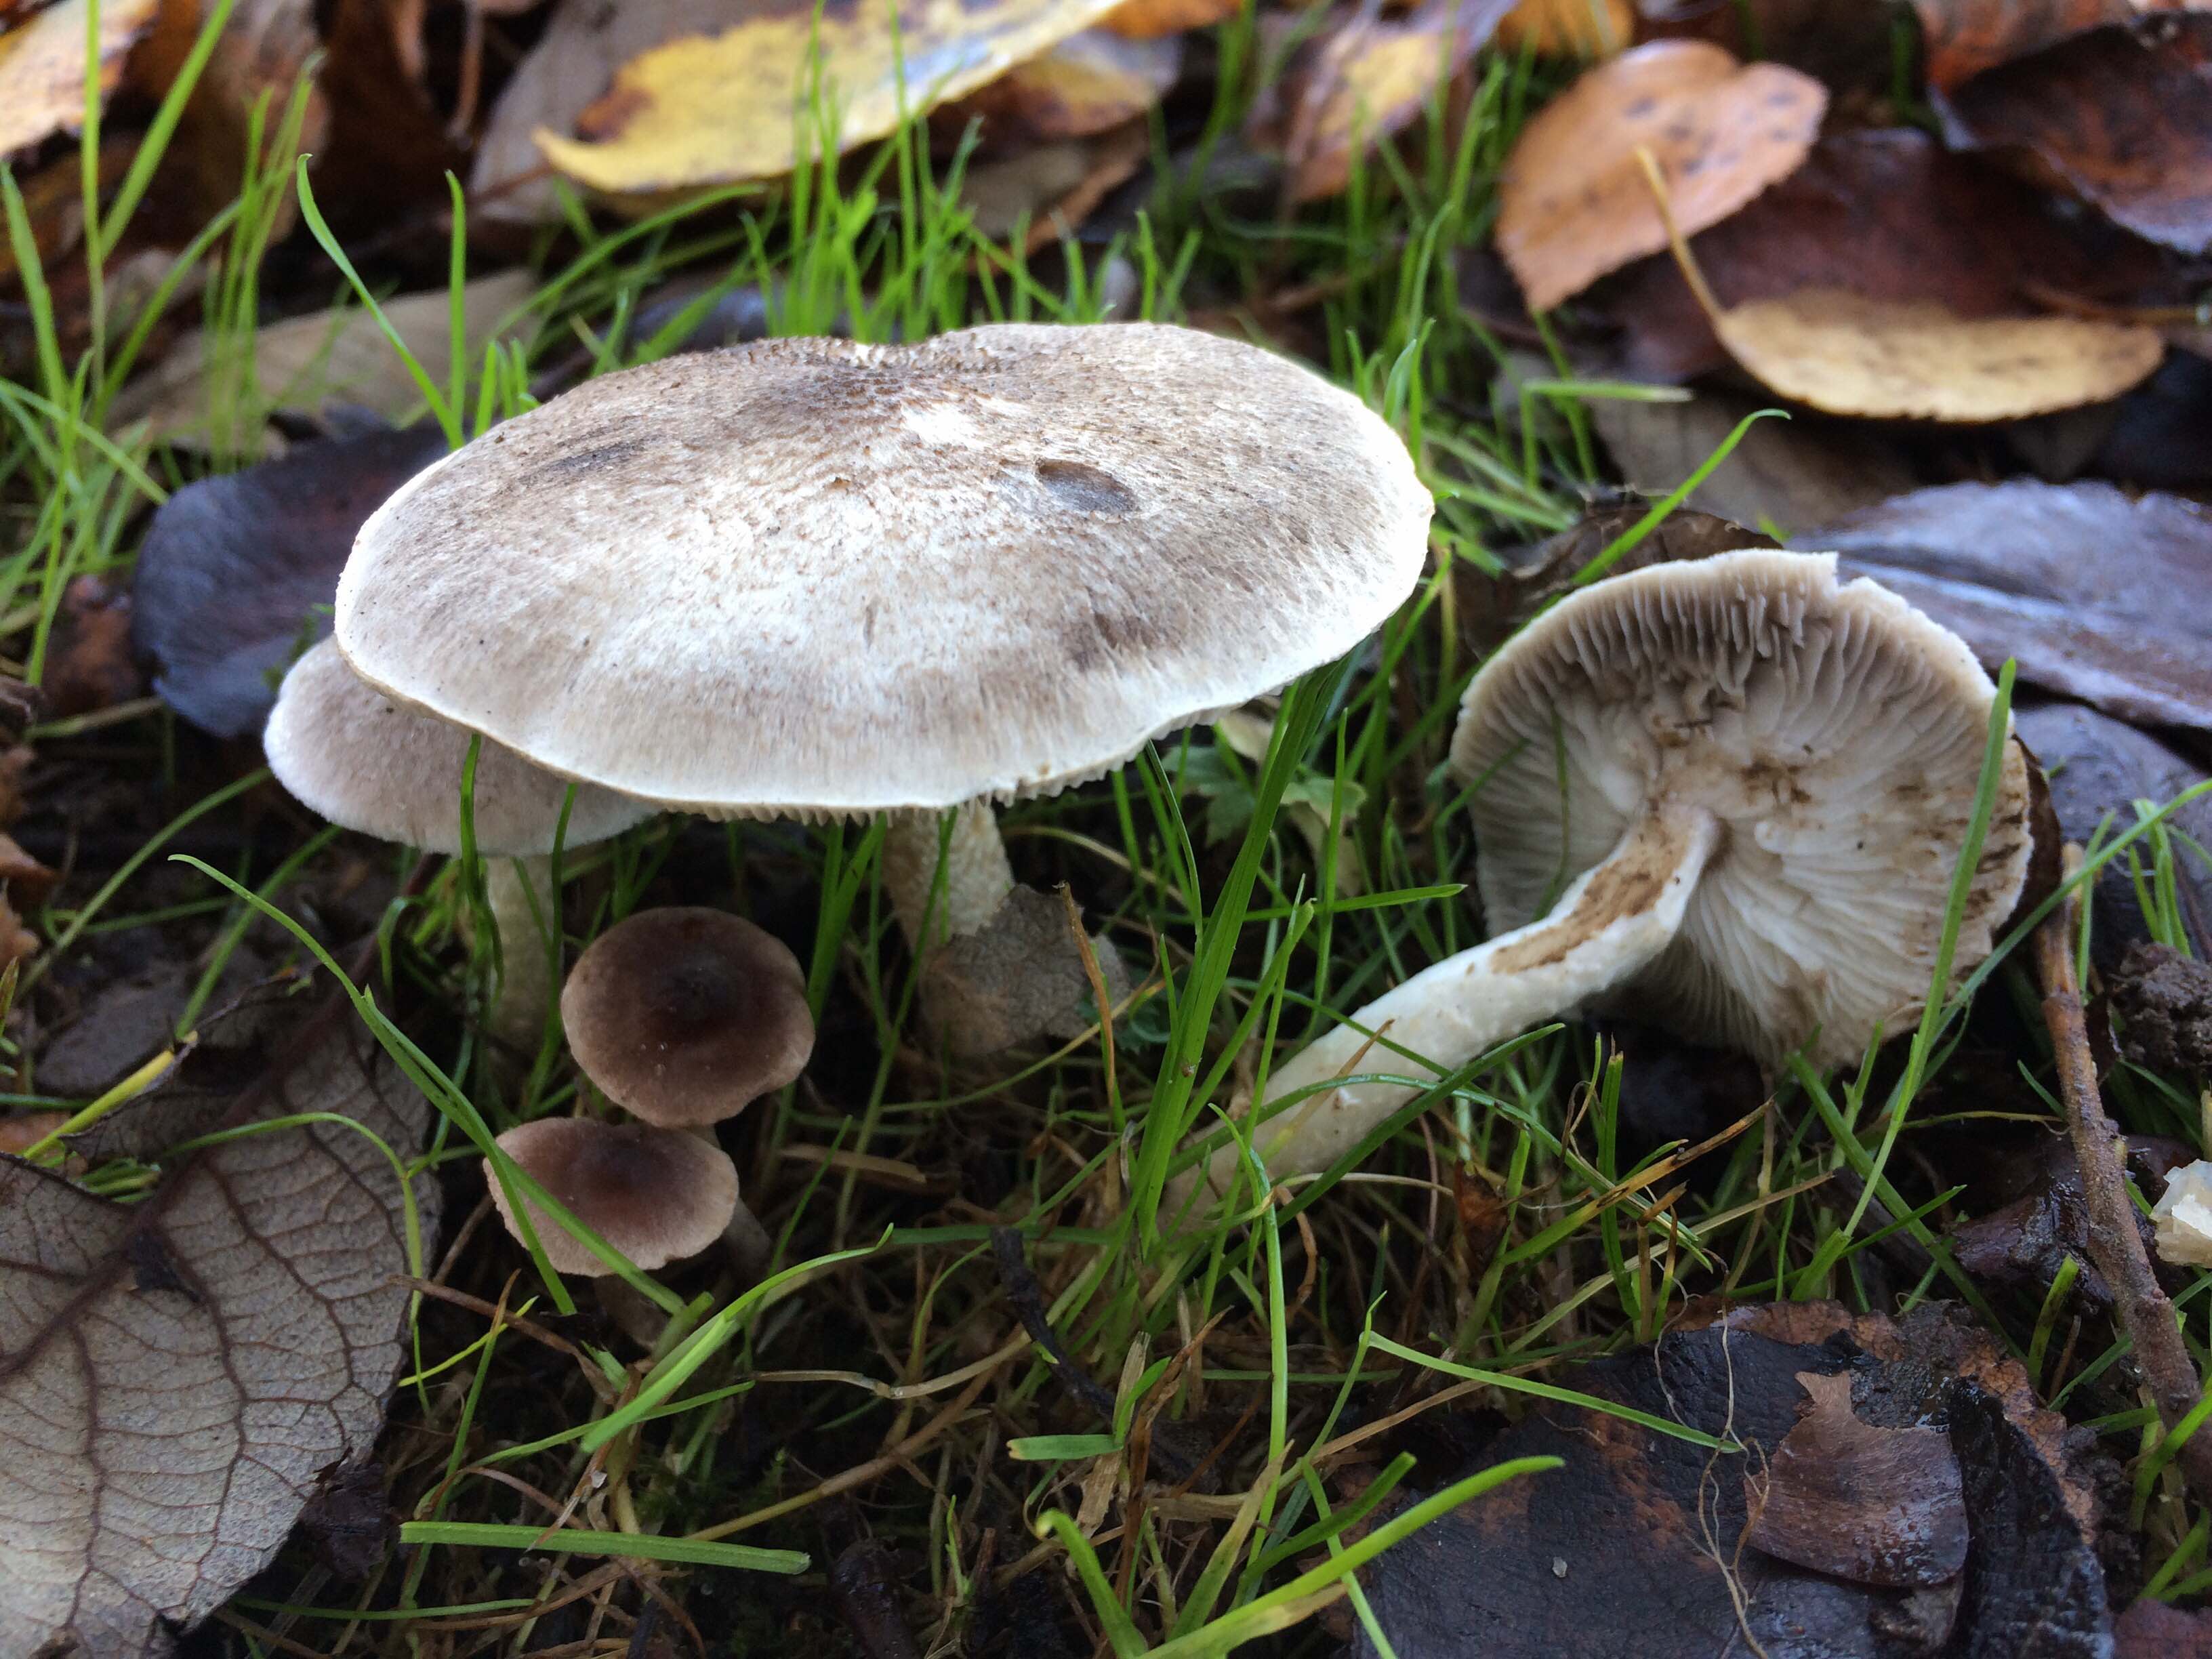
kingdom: Fungi
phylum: Basidiomycota
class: Agaricomycetes
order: Agaricales
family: Tricholomataceae
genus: Tricholoma
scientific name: Tricholoma
